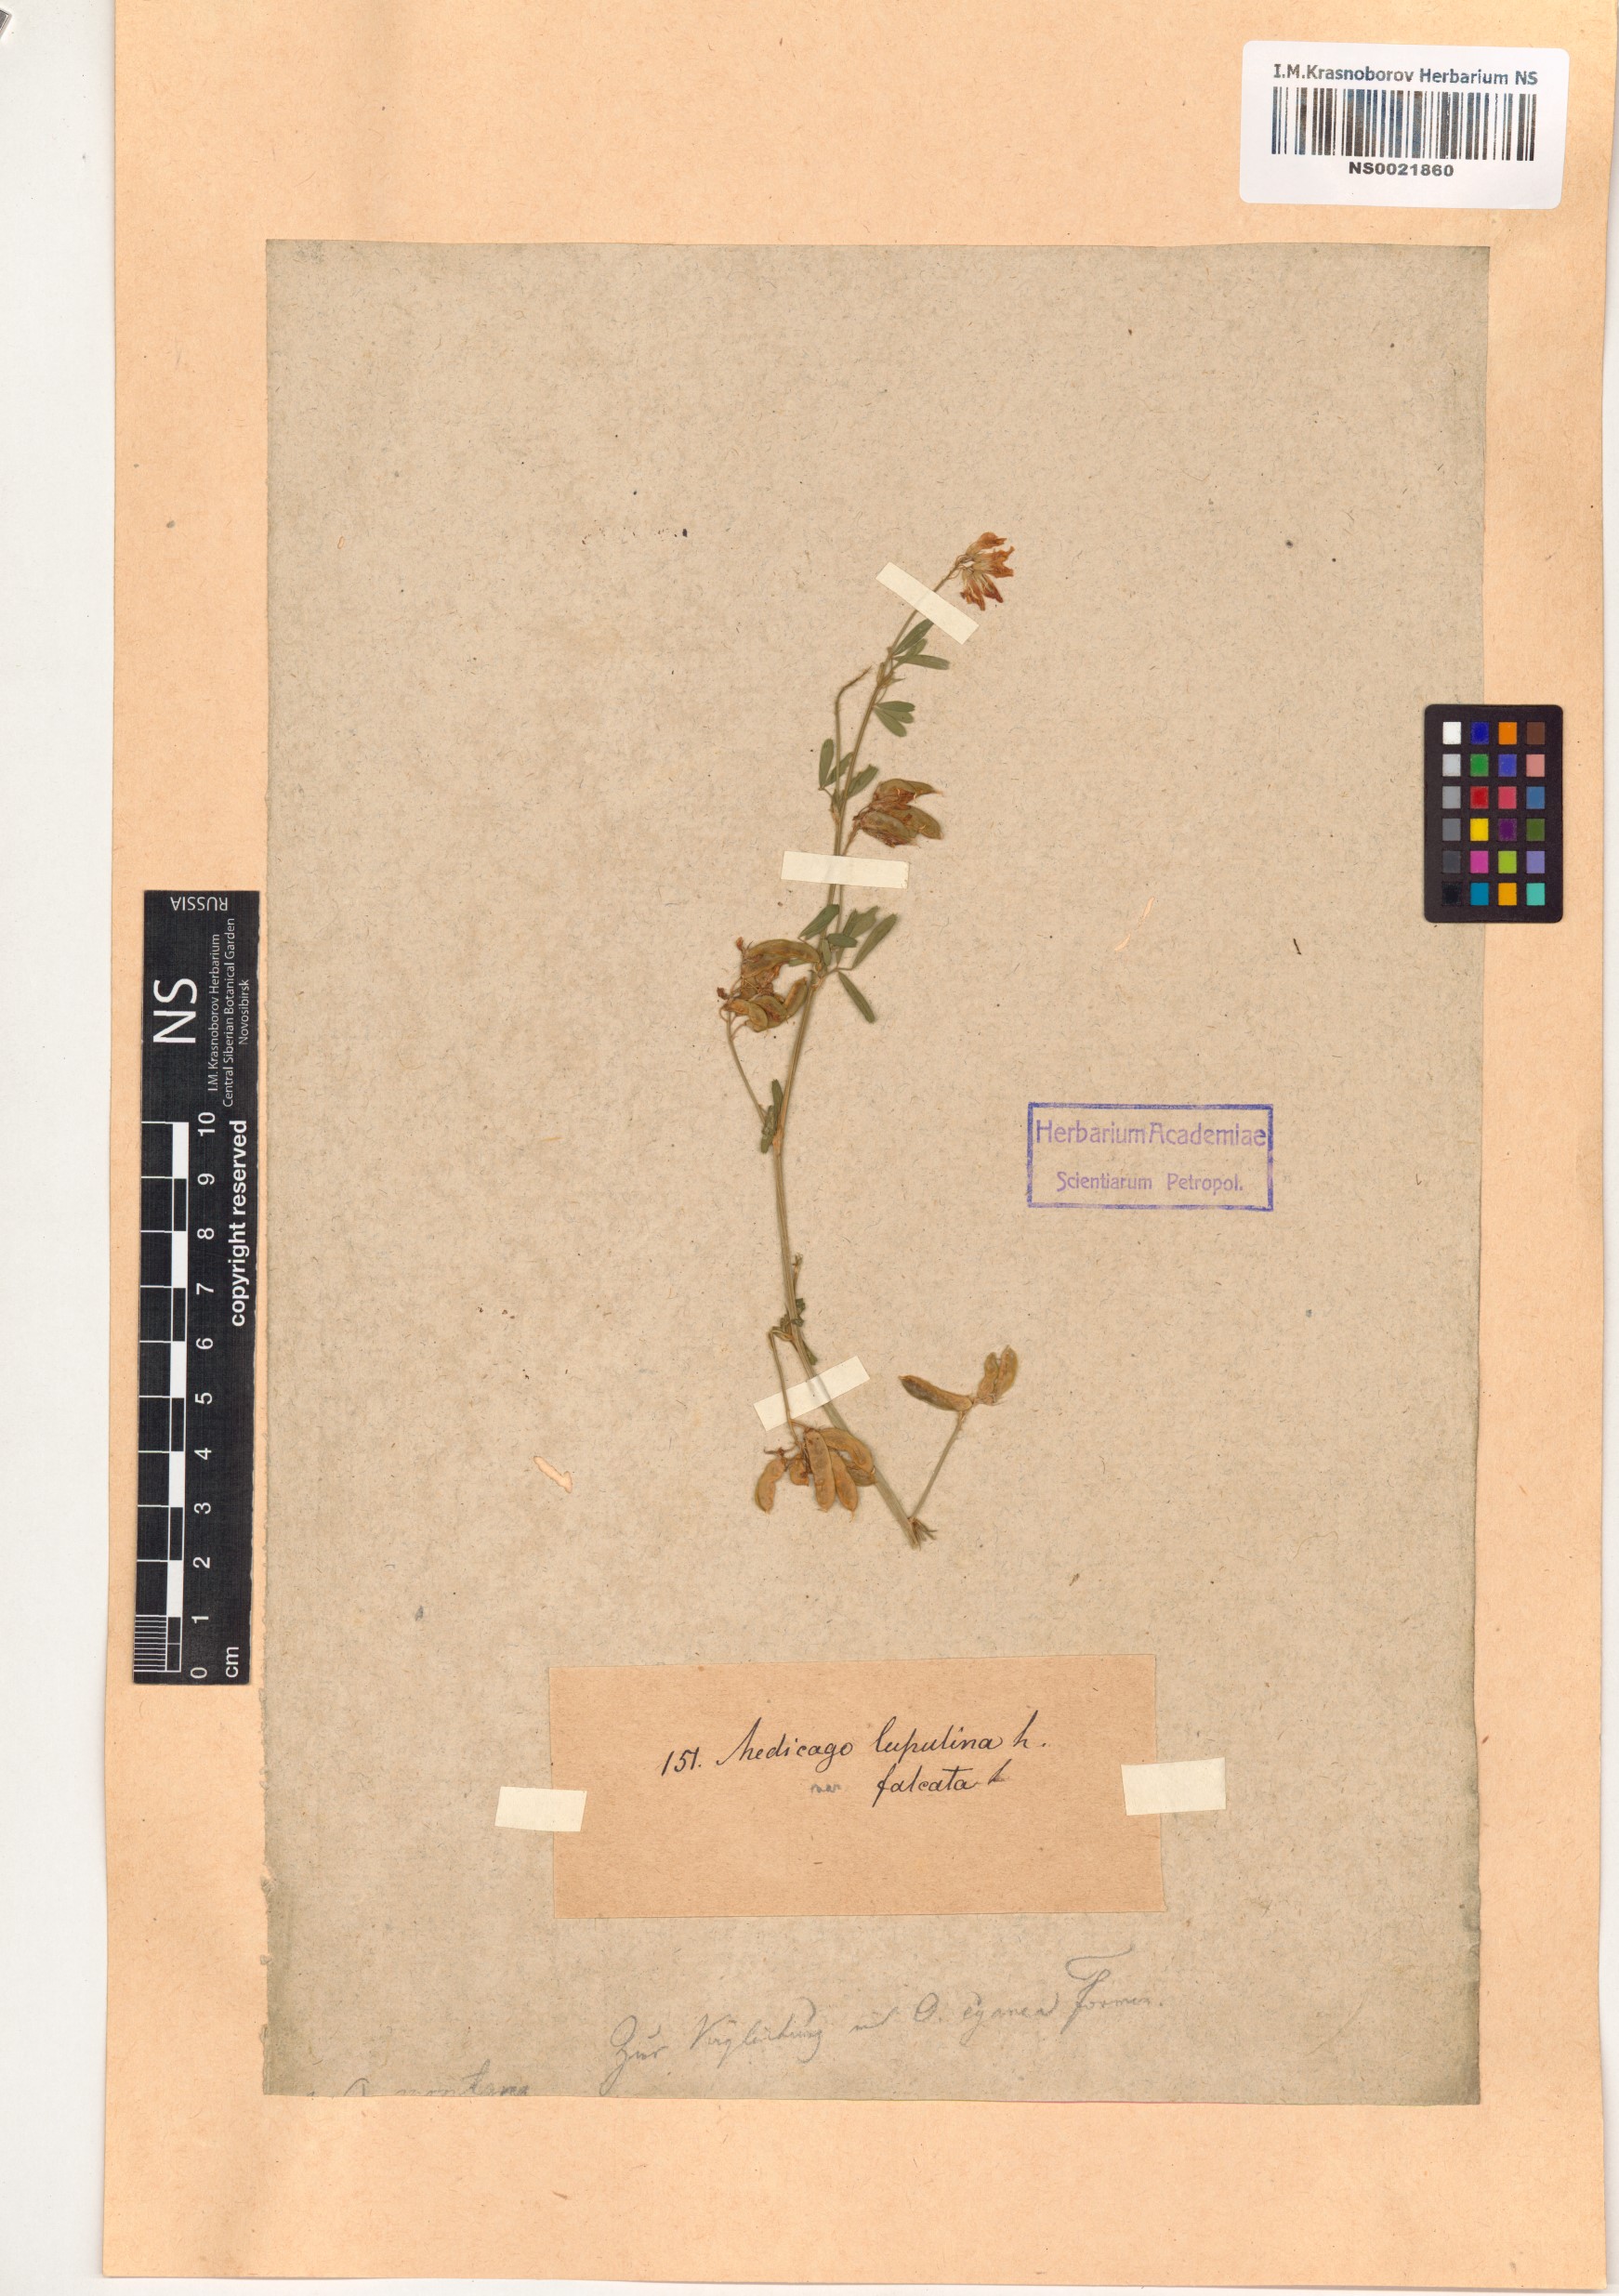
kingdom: Plantae
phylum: Tracheophyta
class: Magnoliopsida
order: Fabales
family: Fabaceae
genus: Medicago
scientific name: Medicago falcata
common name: Sickle medick
